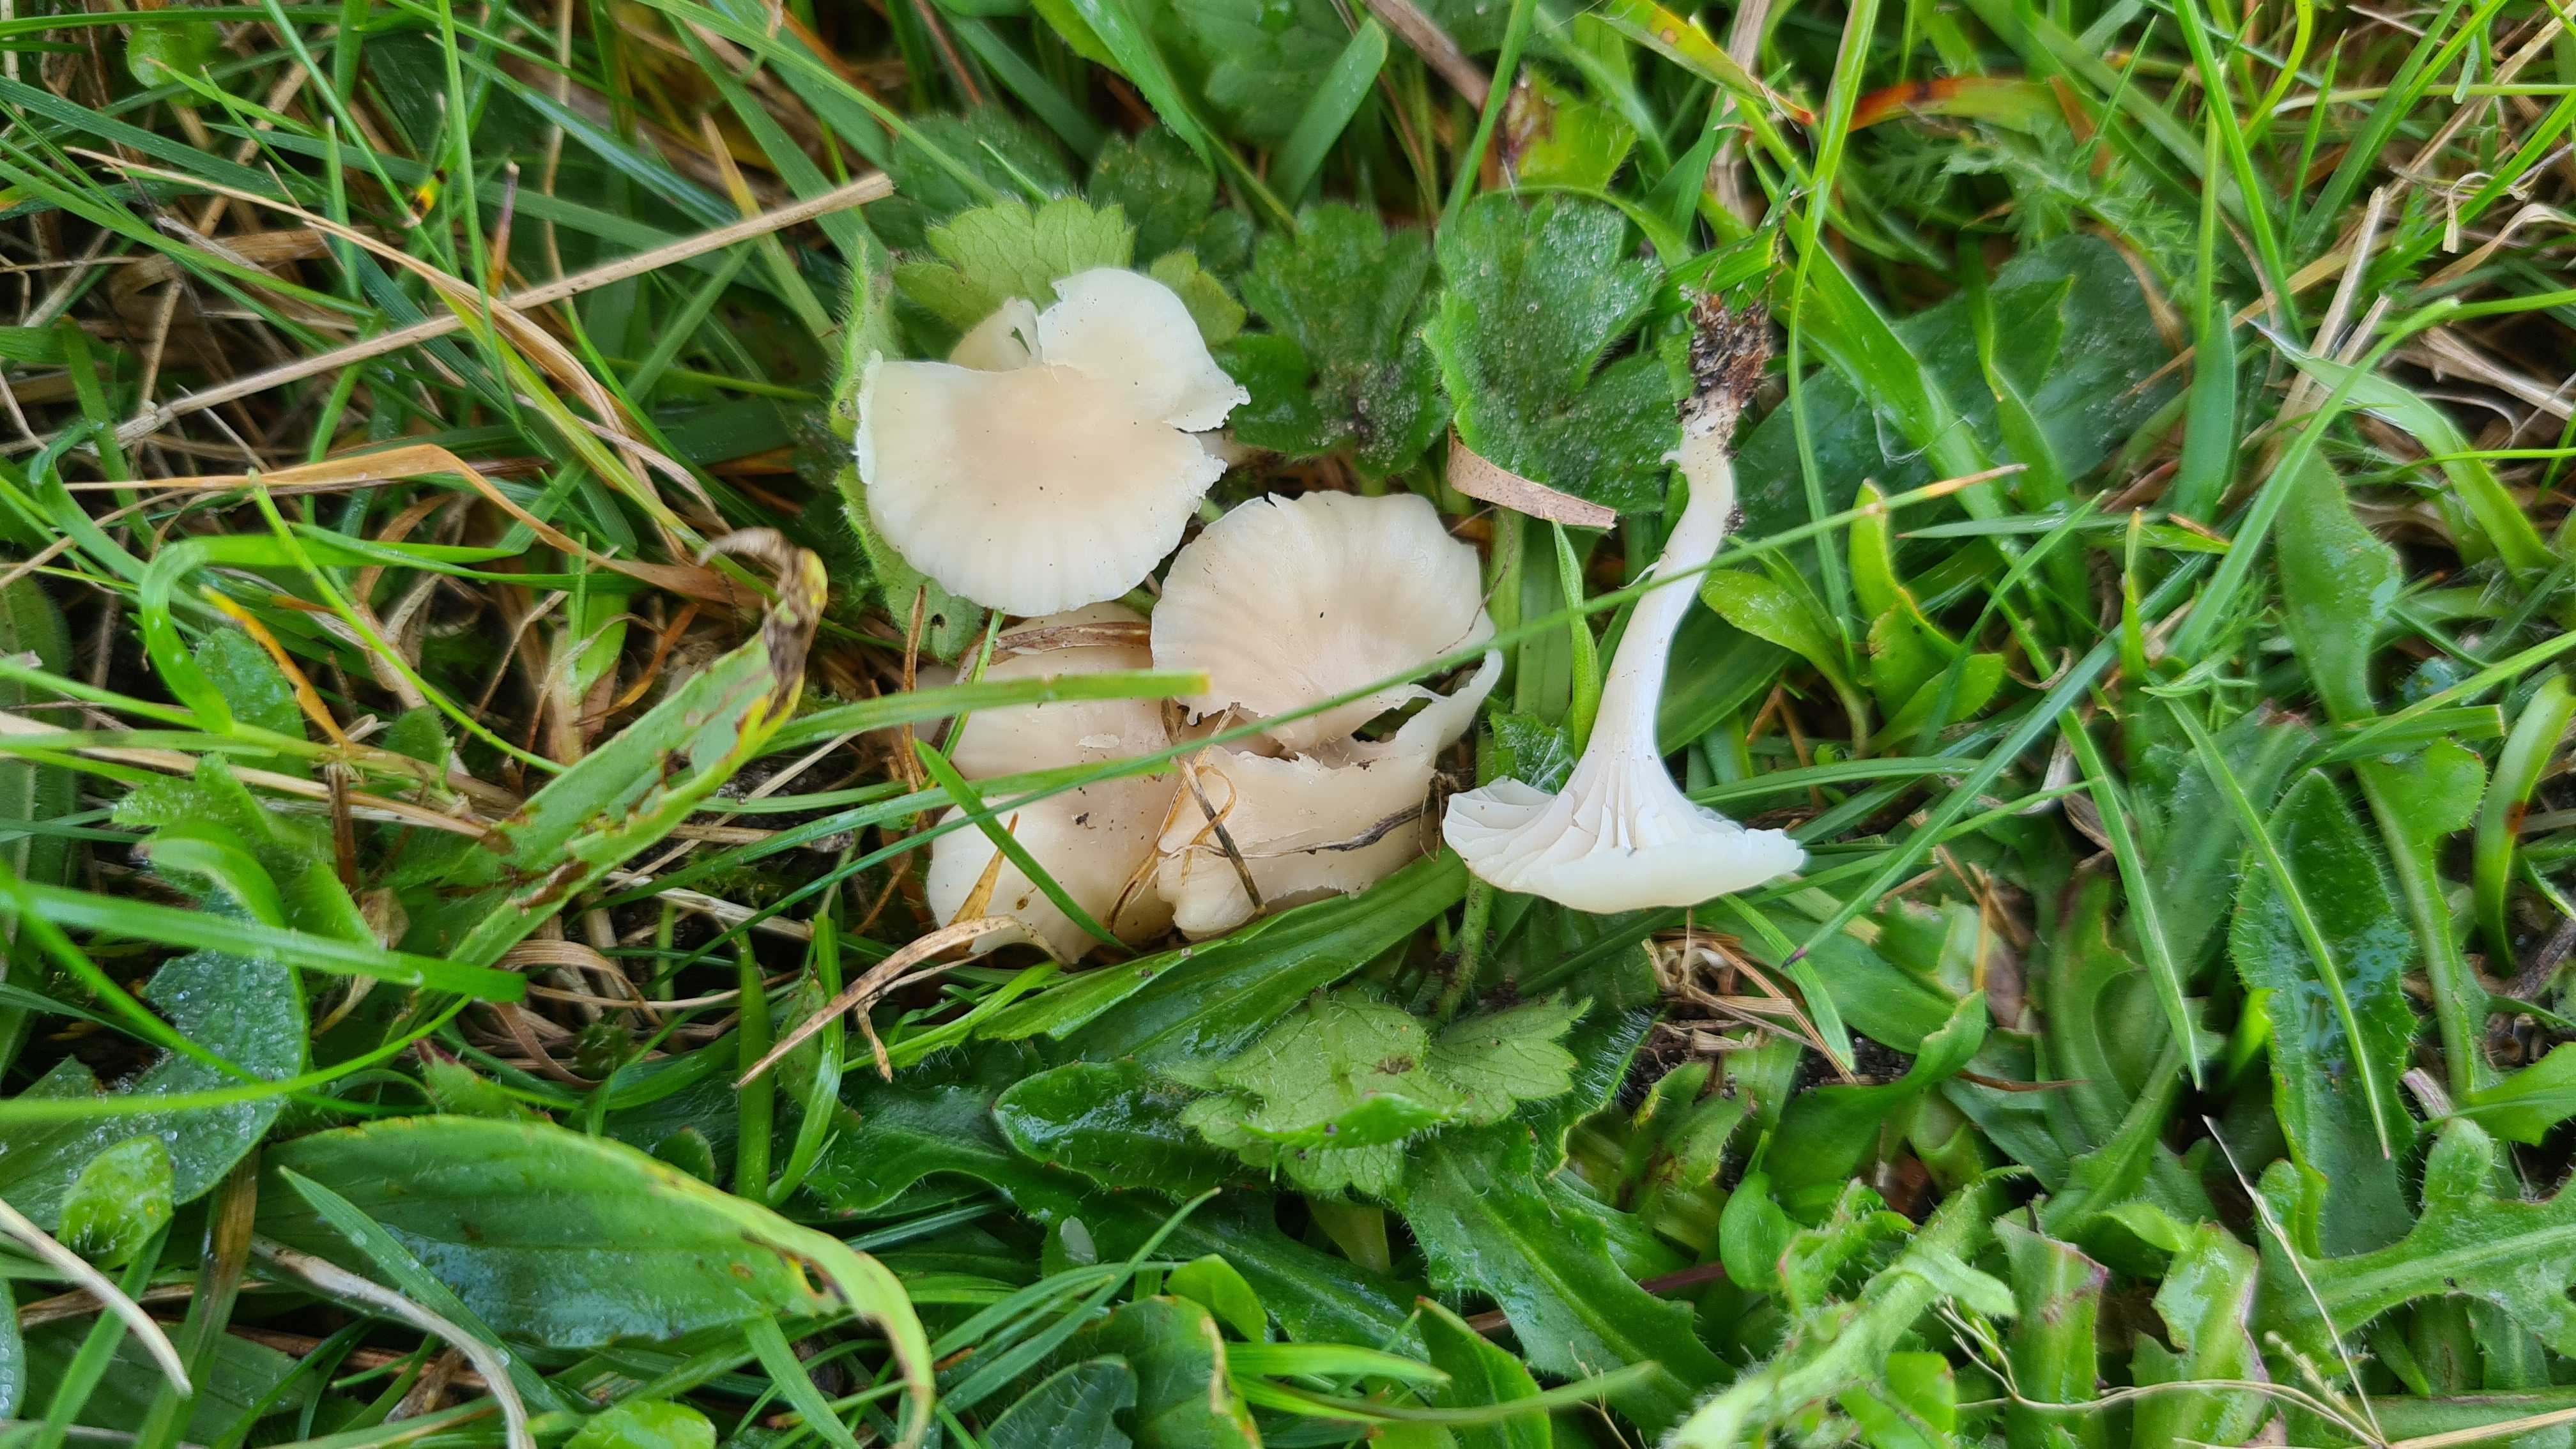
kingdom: Fungi
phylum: Basidiomycota
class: Agaricomycetes
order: Agaricales
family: Hygrophoraceae
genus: Cuphophyllus
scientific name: Cuphophyllus
